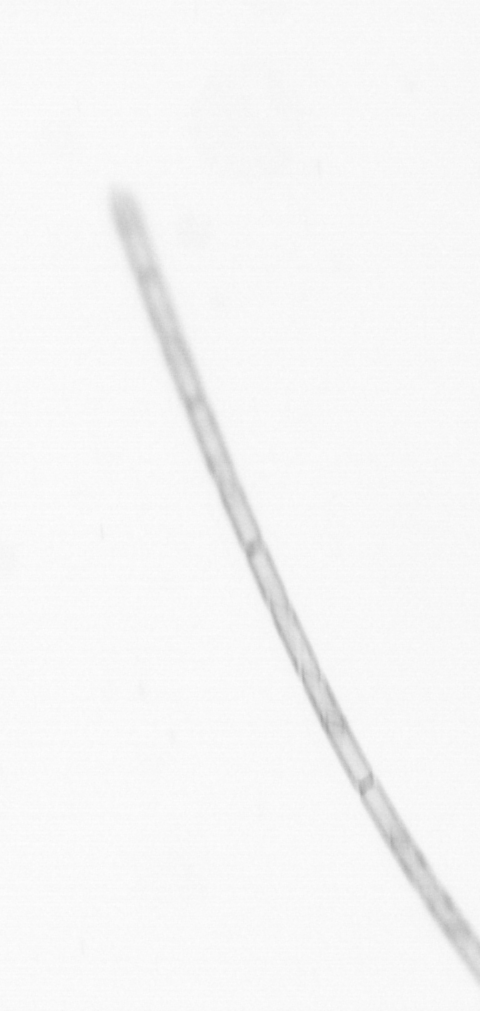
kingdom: Chromista
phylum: Ochrophyta
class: Bacillariophyceae
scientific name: Bacillariophyceae
